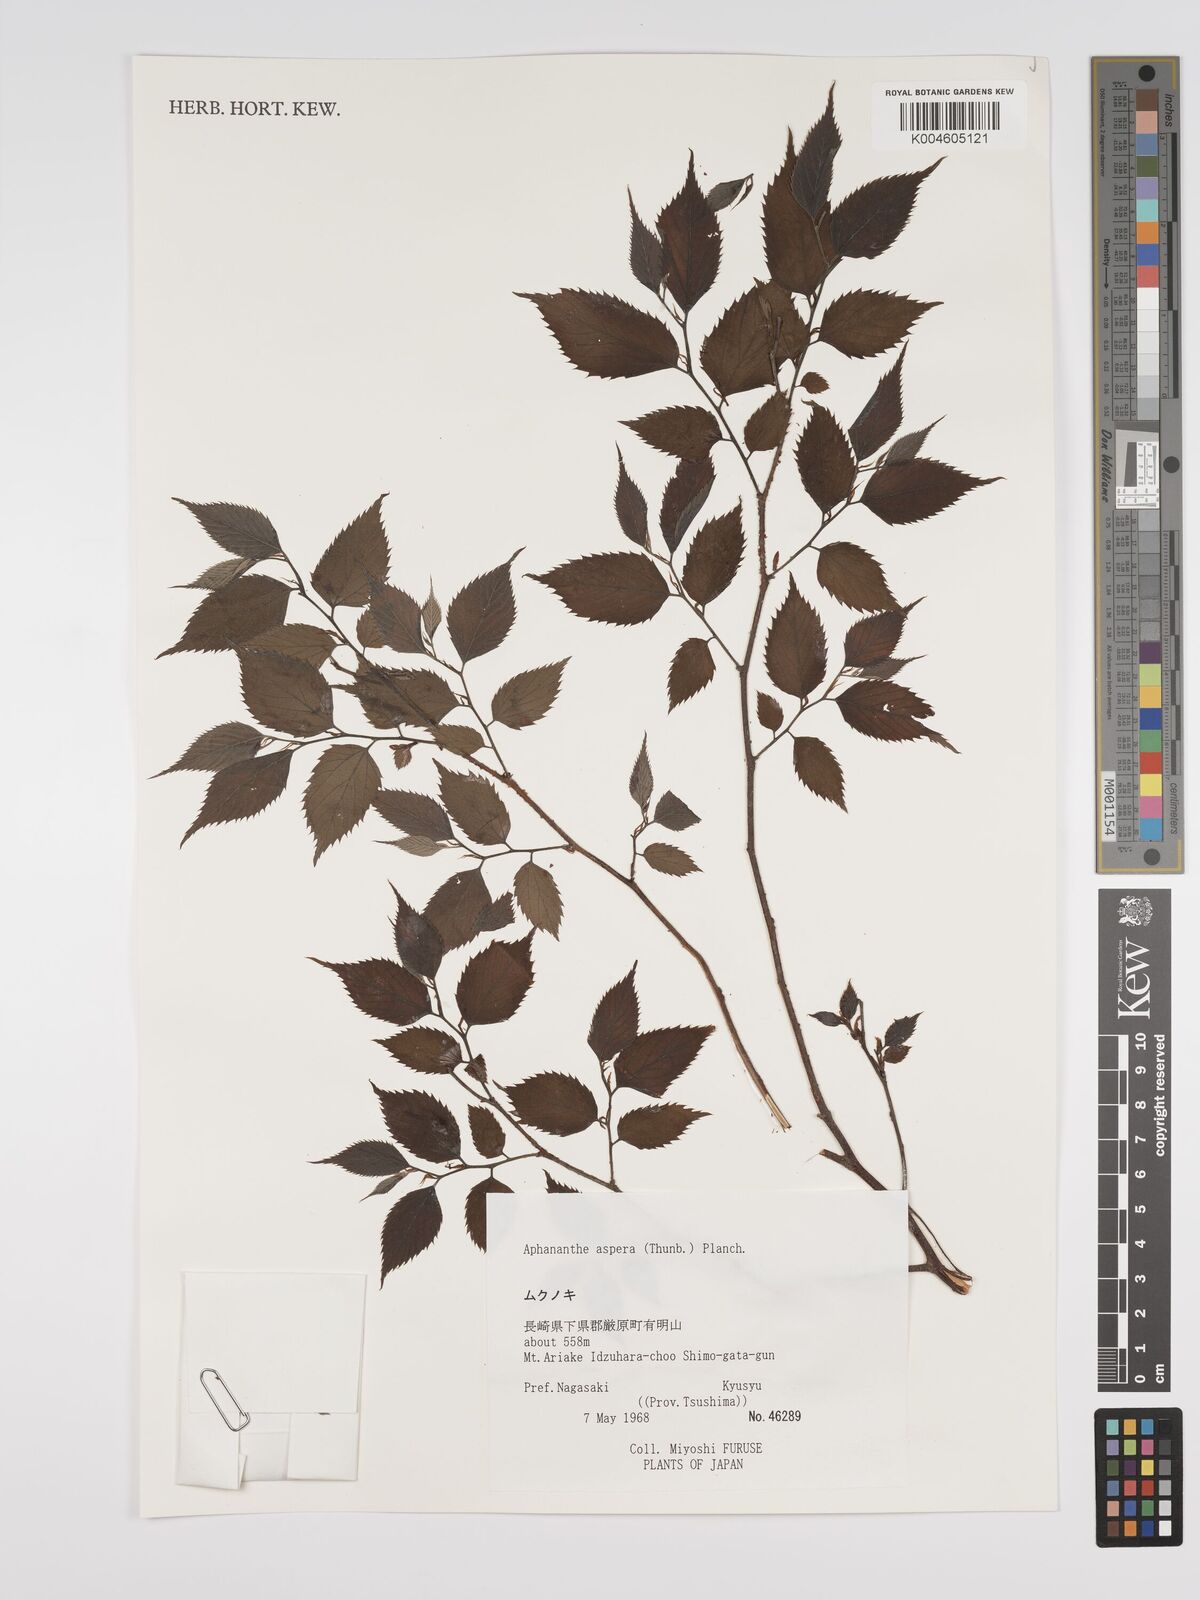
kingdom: Plantae
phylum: Tracheophyta
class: Magnoliopsida
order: Rosales
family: Cannabaceae
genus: Aphananthe
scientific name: Aphananthe aspera
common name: Mukutree
